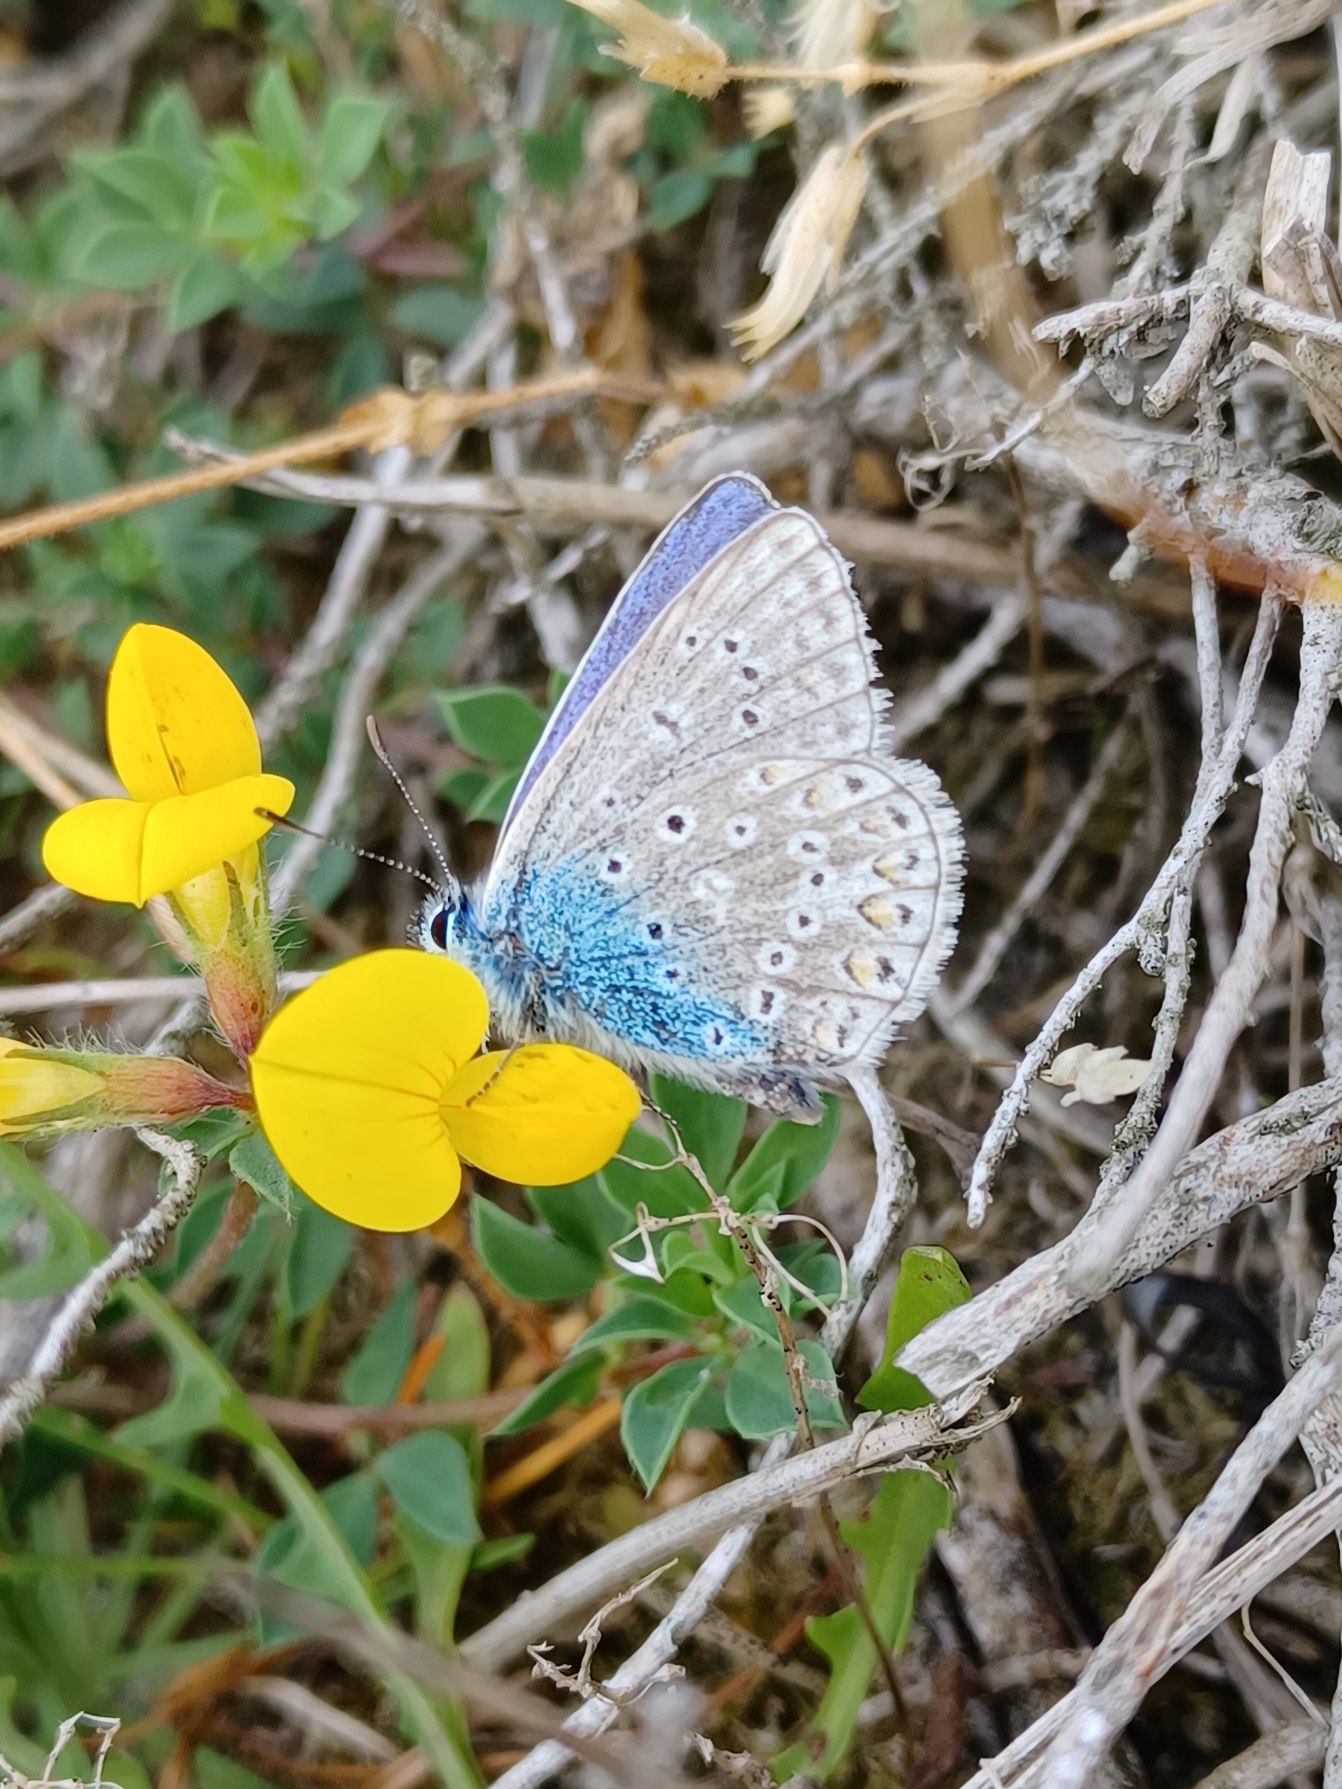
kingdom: Animalia
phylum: Arthropoda
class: Insecta
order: Lepidoptera
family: Lycaenidae
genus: Polyommatus
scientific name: Polyommatus icarus
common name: Almindelig blåfugl
